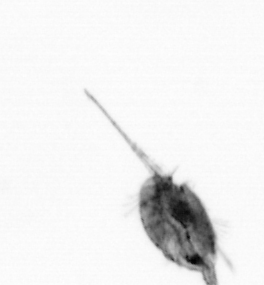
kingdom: Animalia
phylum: Arthropoda
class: Copepoda
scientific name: Copepoda
